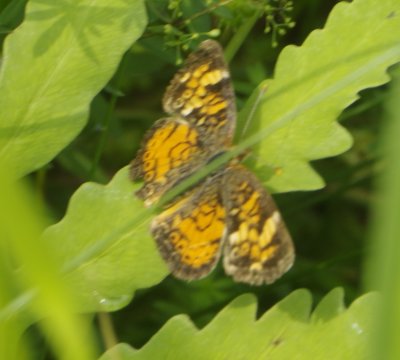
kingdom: Animalia
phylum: Arthropoda
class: Insecta
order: Lepidoptera
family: Nymphalidae
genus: Phyciodes
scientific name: Phyciodes tharos
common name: Northern Crescent
